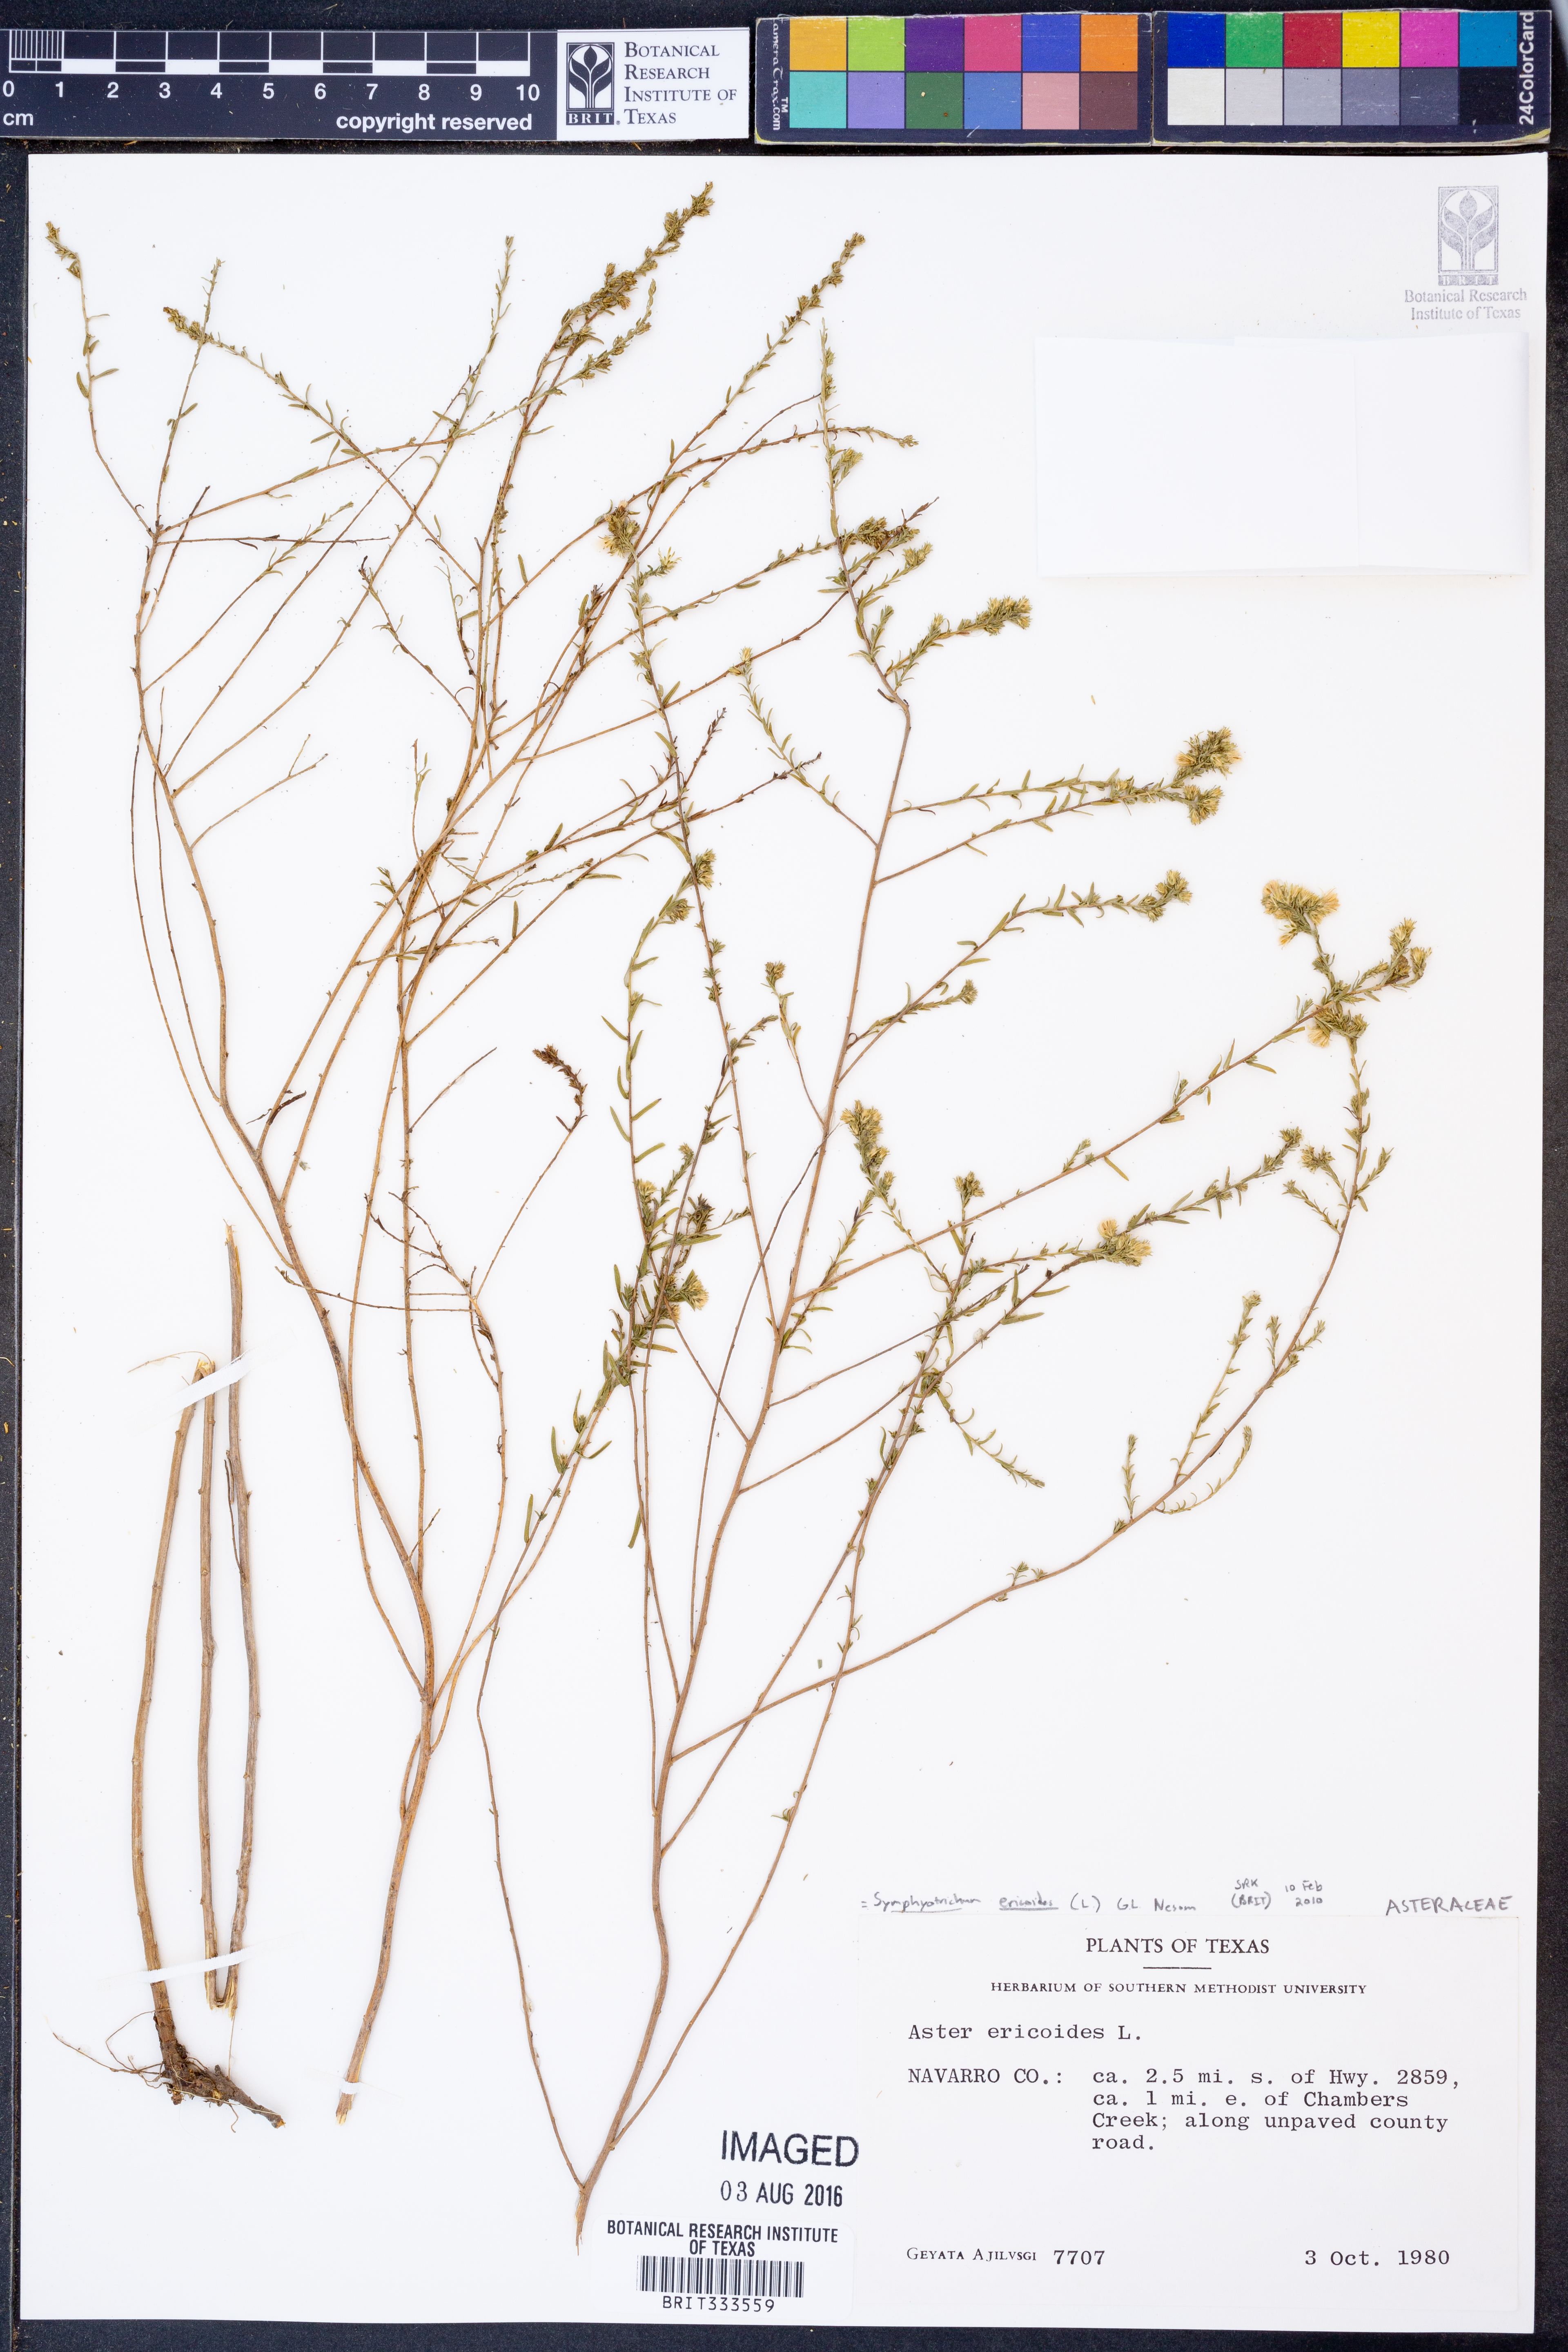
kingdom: Plantae
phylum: Tracheophyta
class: Magnoliopsida
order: Asterales
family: Asteraceae
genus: Symphyotrichum
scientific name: Symphyotrichum ericoides
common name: Heath aster
